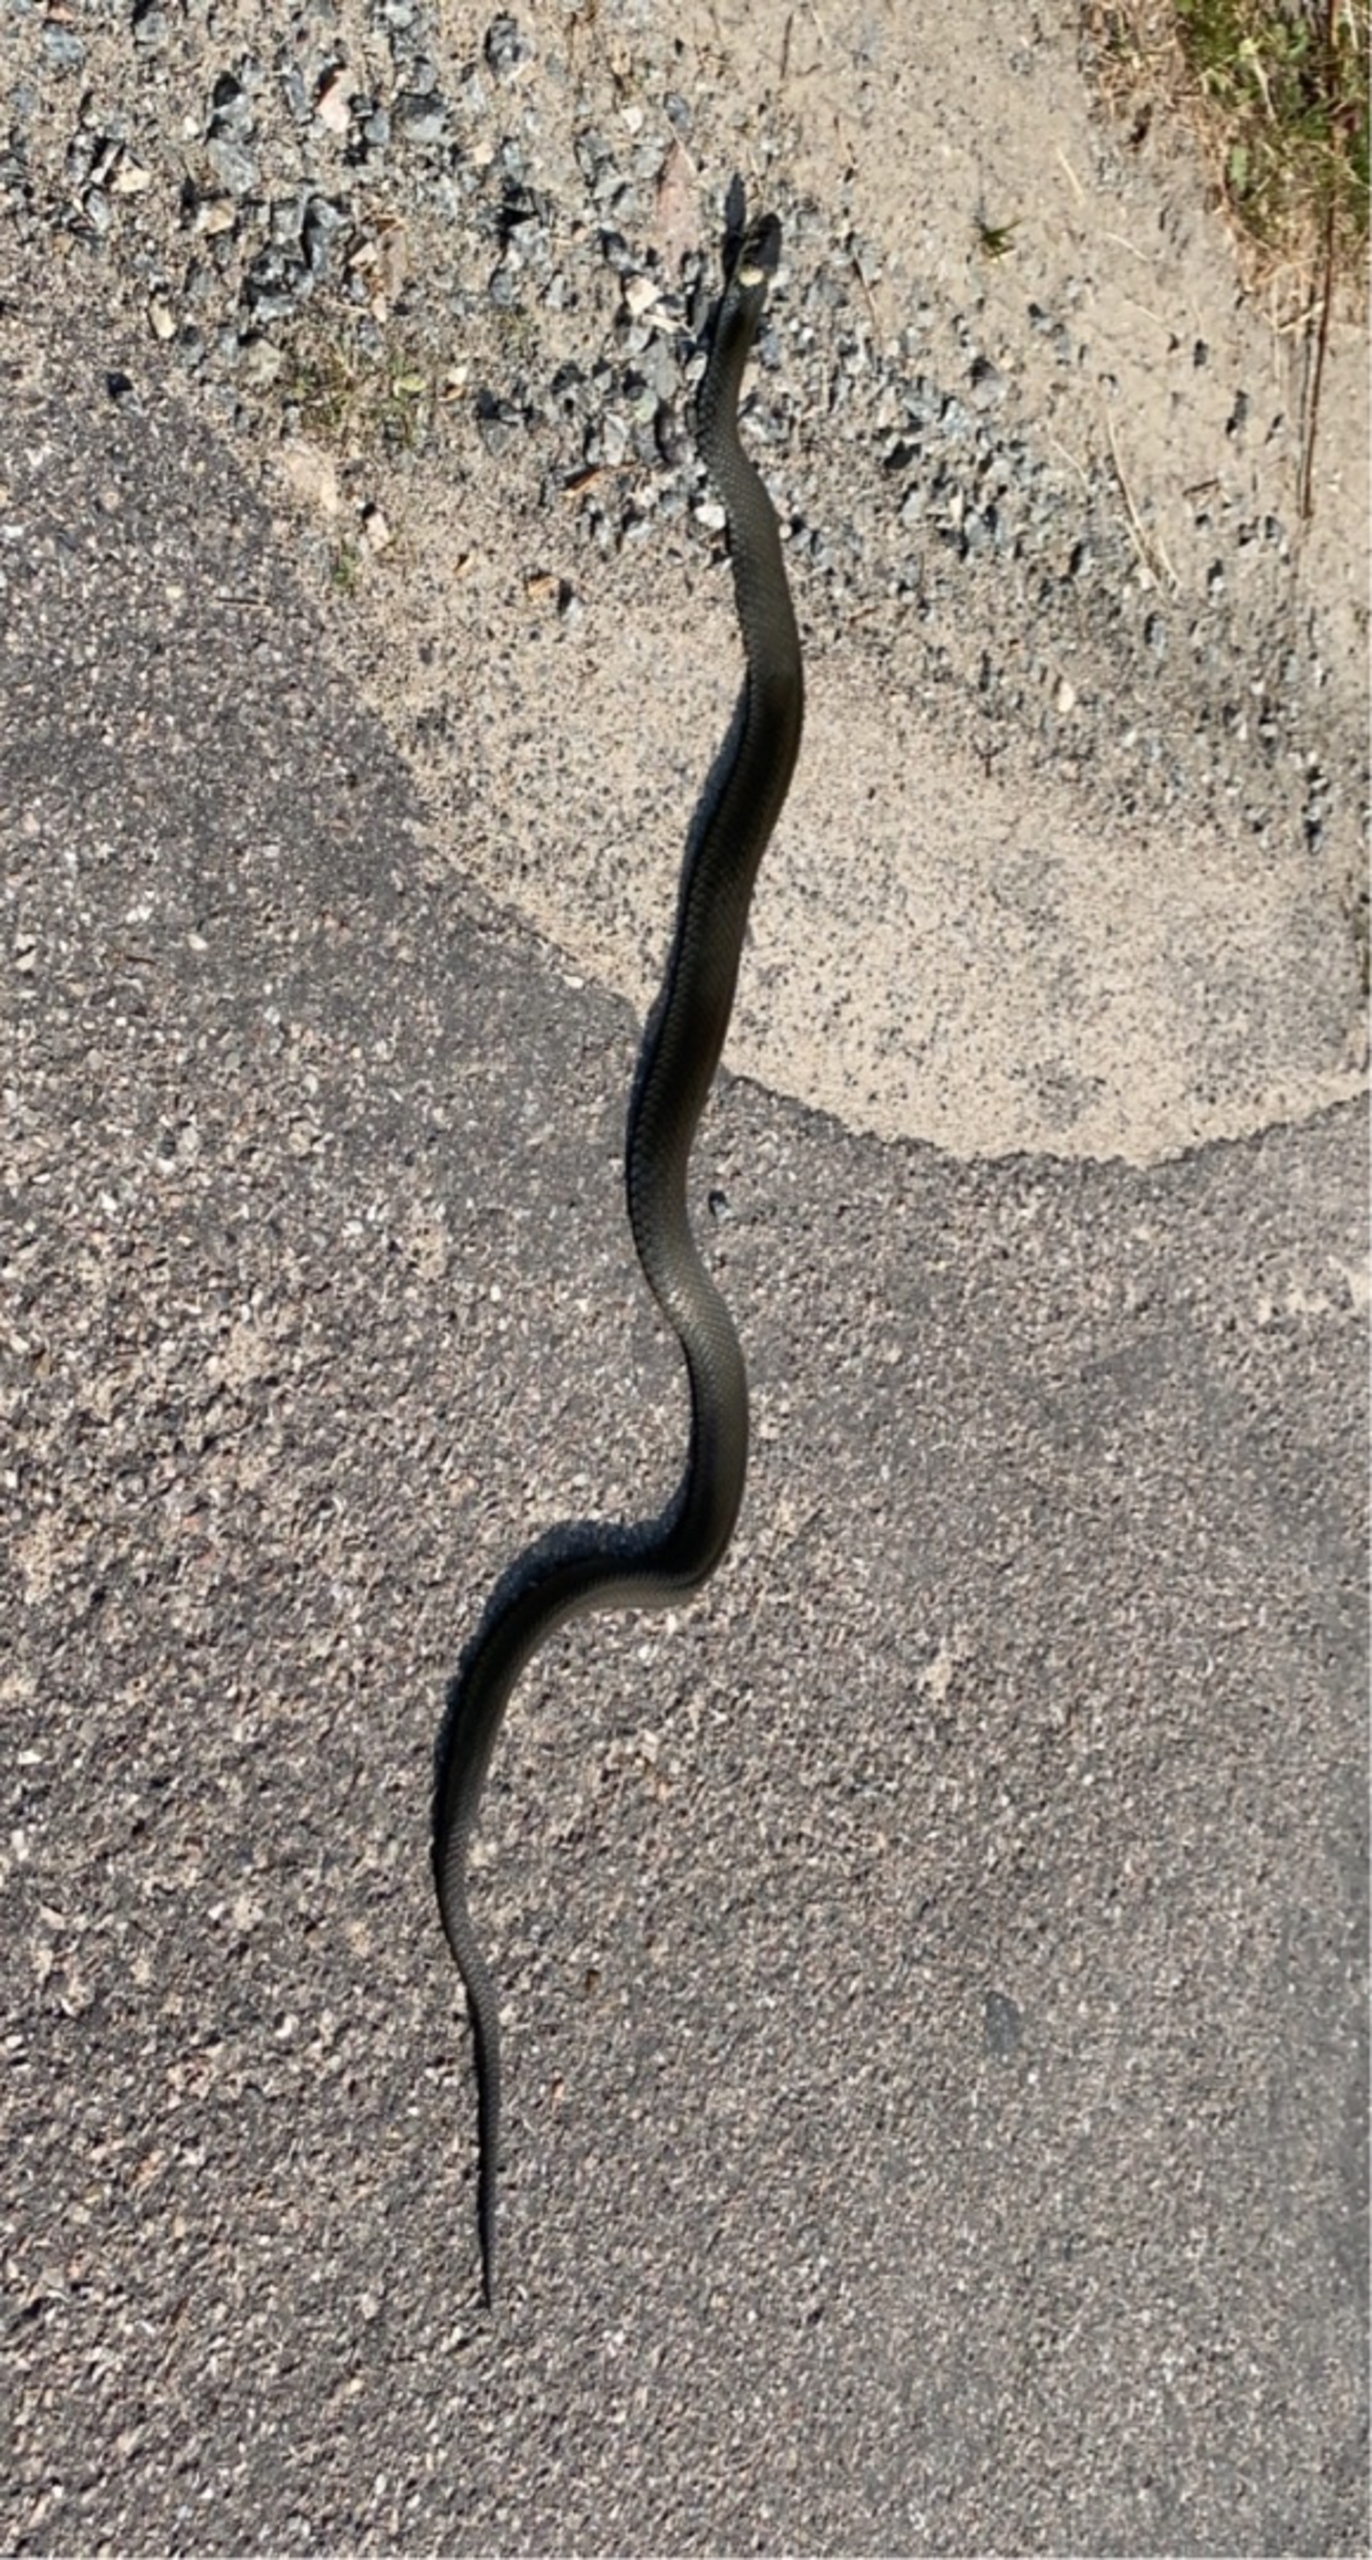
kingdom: Animalia
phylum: Chordata
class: Squamata
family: Colubridae
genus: Natrix
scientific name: Natrix natrix
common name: Snog
